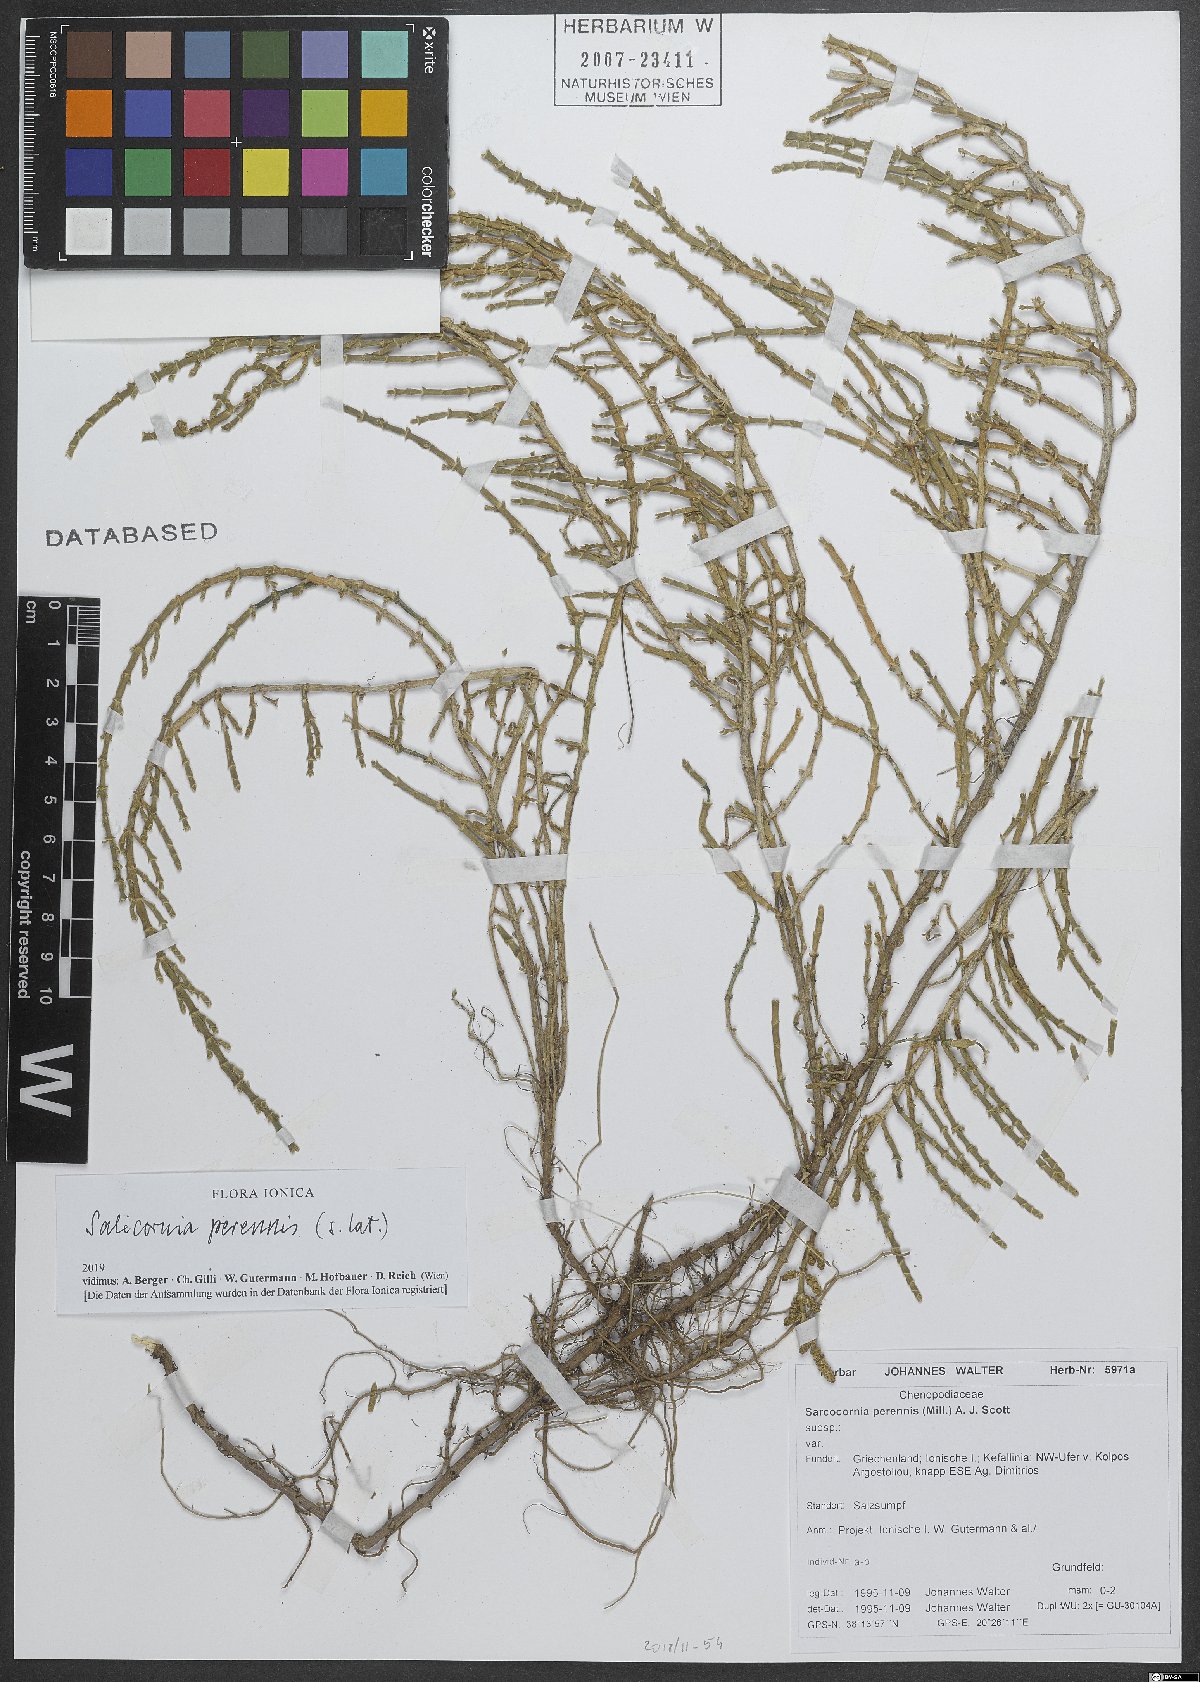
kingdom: Plantae
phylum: Tracheophyta
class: Magnoliopsida
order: Caryophyllales
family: Amaranthaceae
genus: Salicornia
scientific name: Salicornia perennis
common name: Chicken claws
